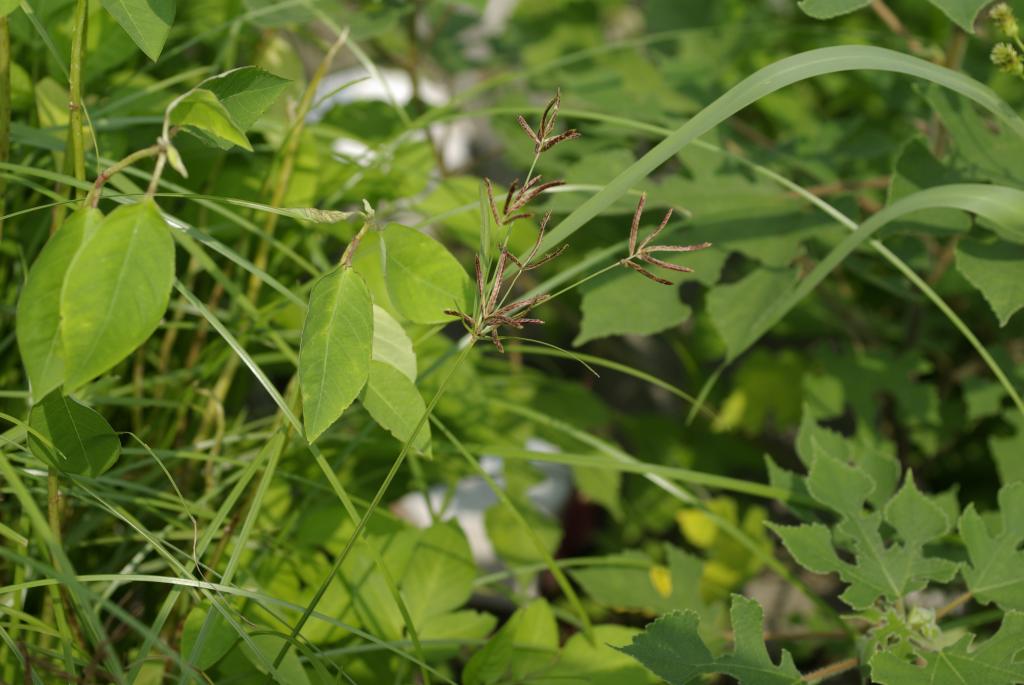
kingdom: Plantae
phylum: Tracheophyta
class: Liliopsida
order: Poales
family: Cyperaceae
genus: Cyperus
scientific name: Cyperus rotundus
